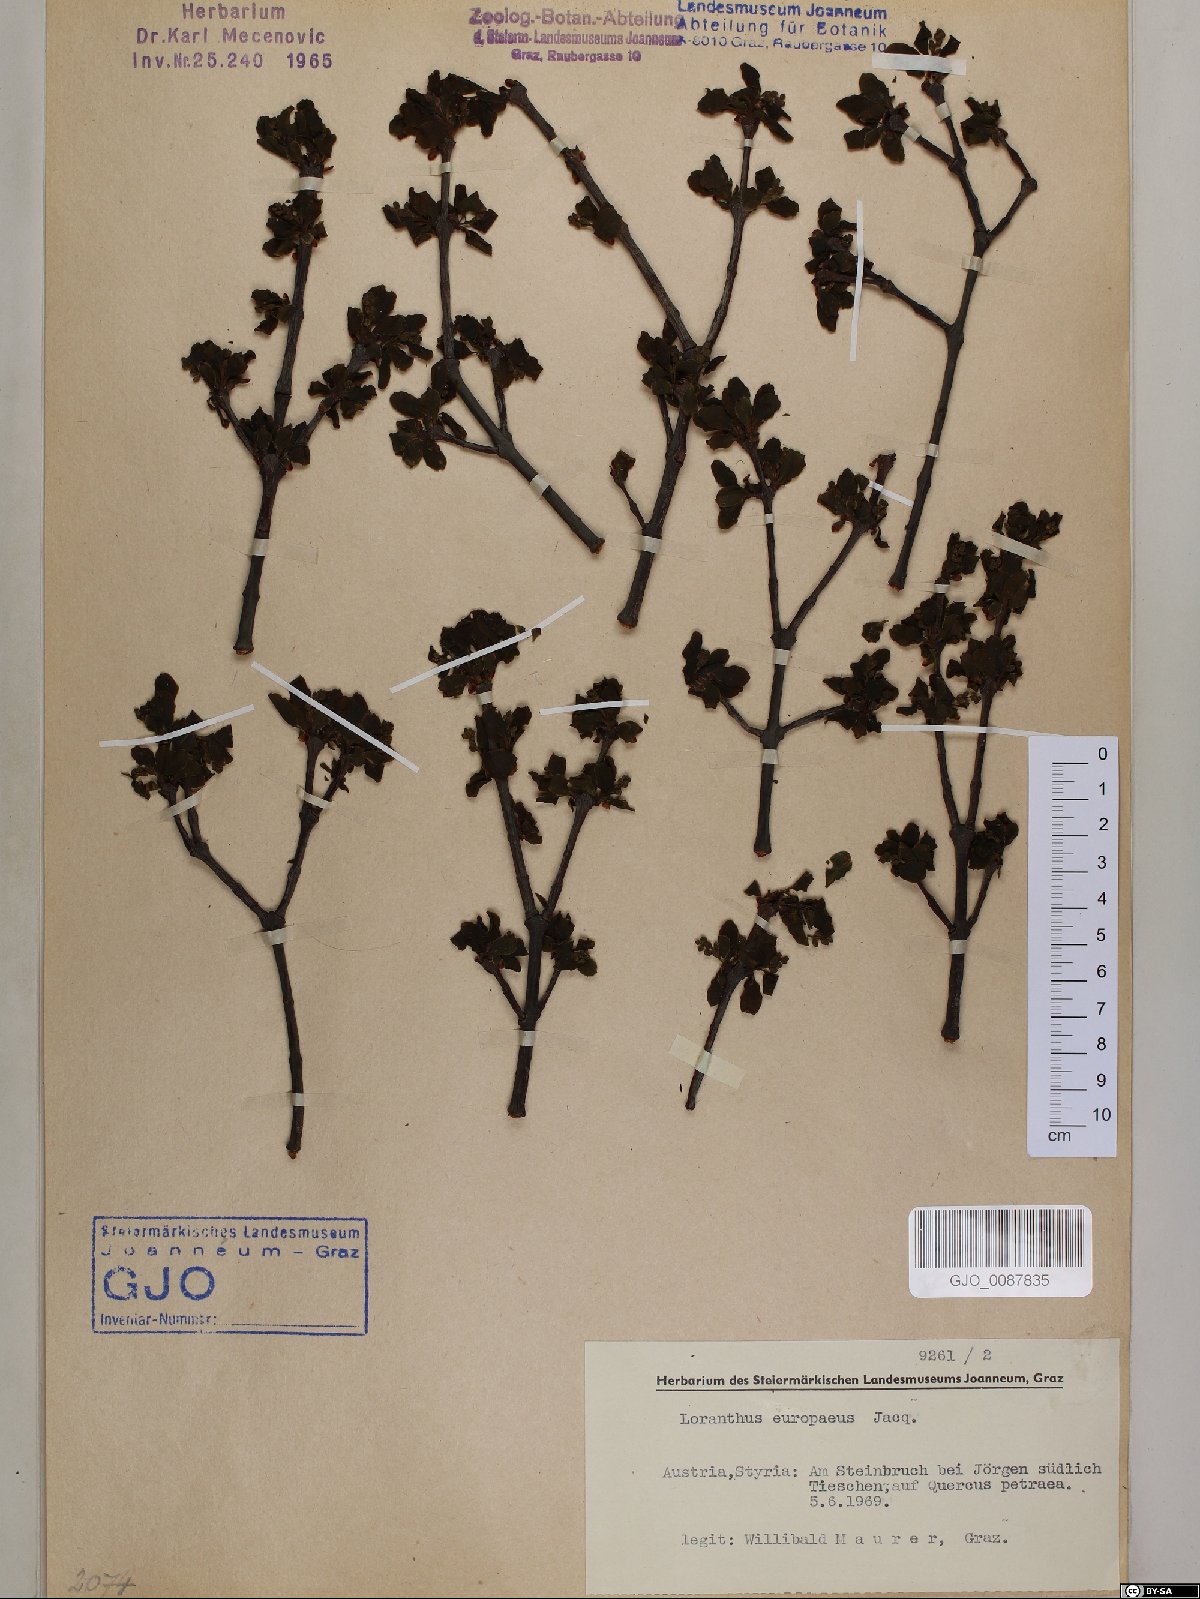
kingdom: Plantae
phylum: Tracheophyta
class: Magnoliopsida
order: Santalales
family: Loranthaceae
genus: Loranthus
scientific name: Loranthus europaeus
